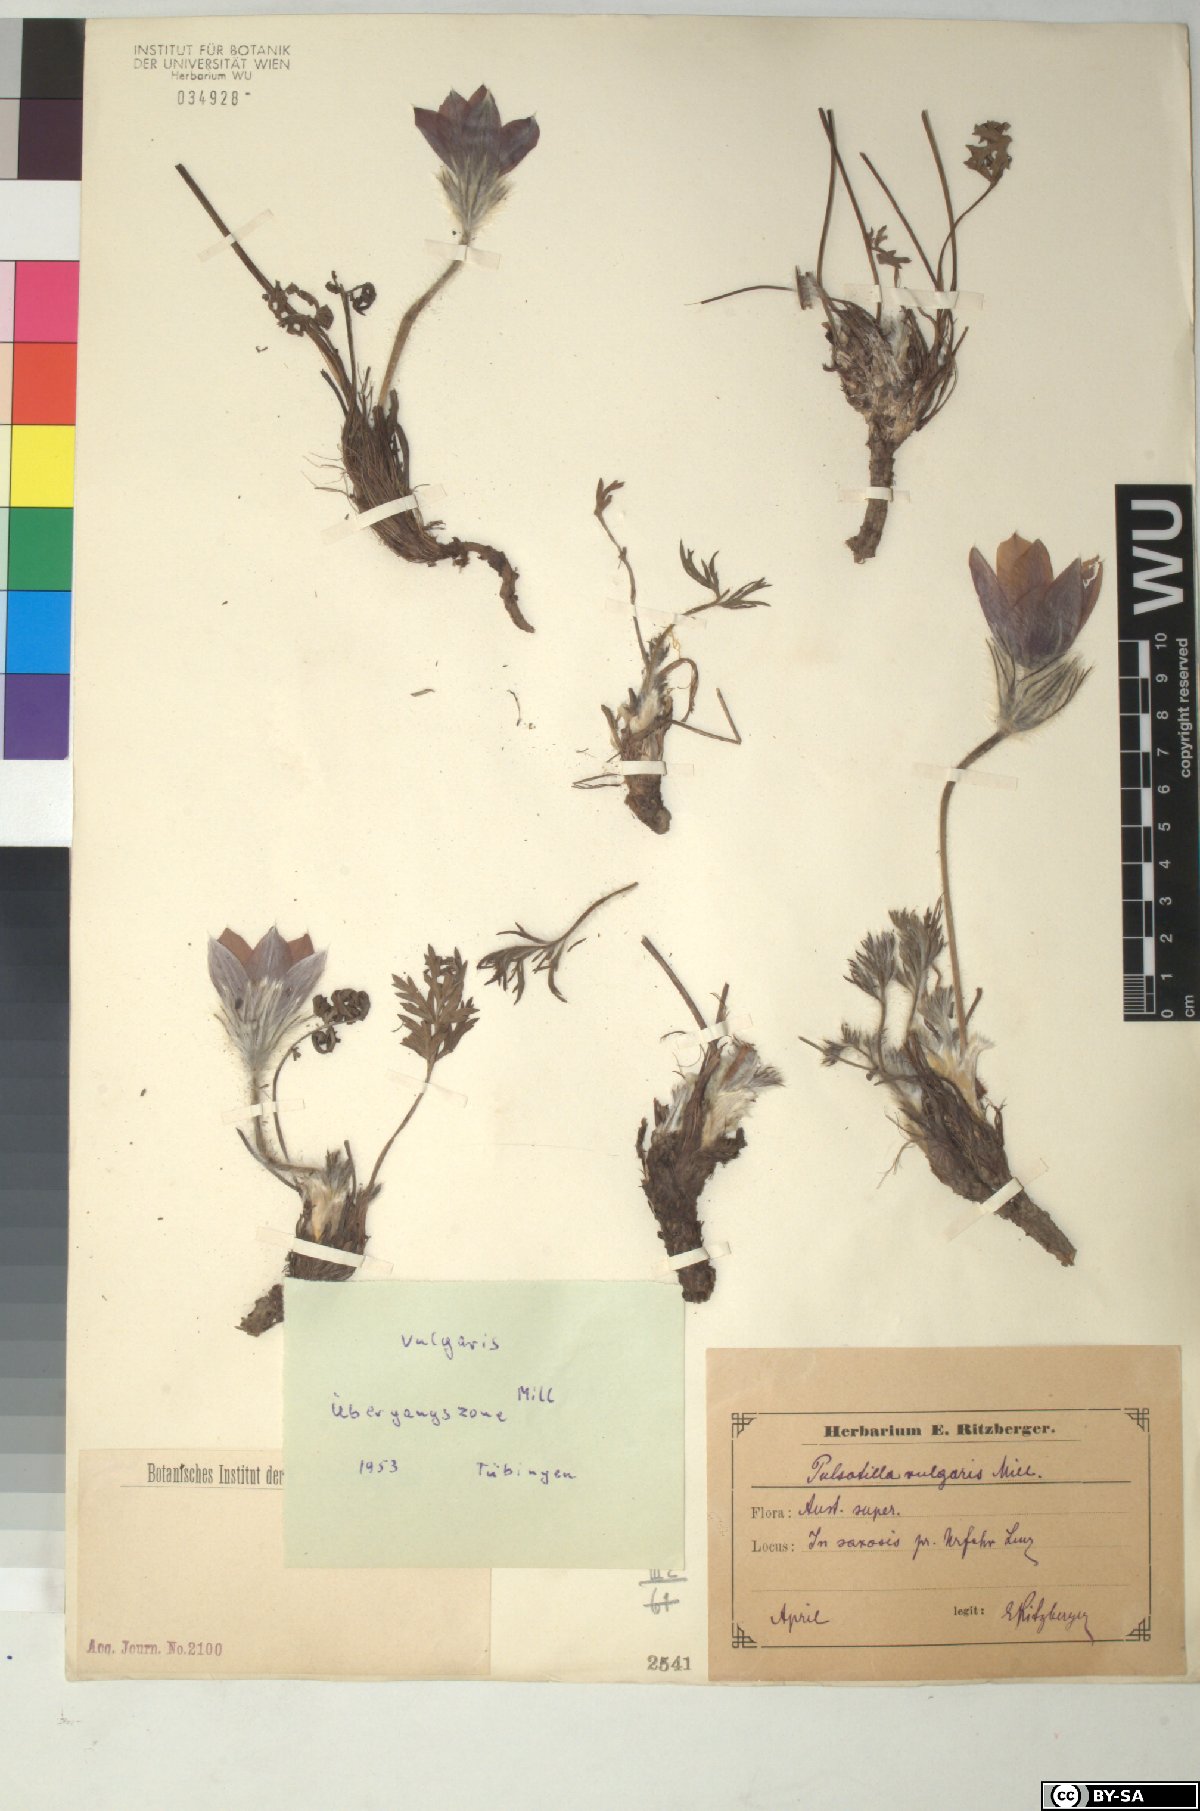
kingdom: Plantae
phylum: Tracheophyta
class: Magnoliopsida
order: Ranunculales
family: Ranunculaceae
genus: Pulsatilla
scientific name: Pulsatilla vulgaris
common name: Pasqueflower
